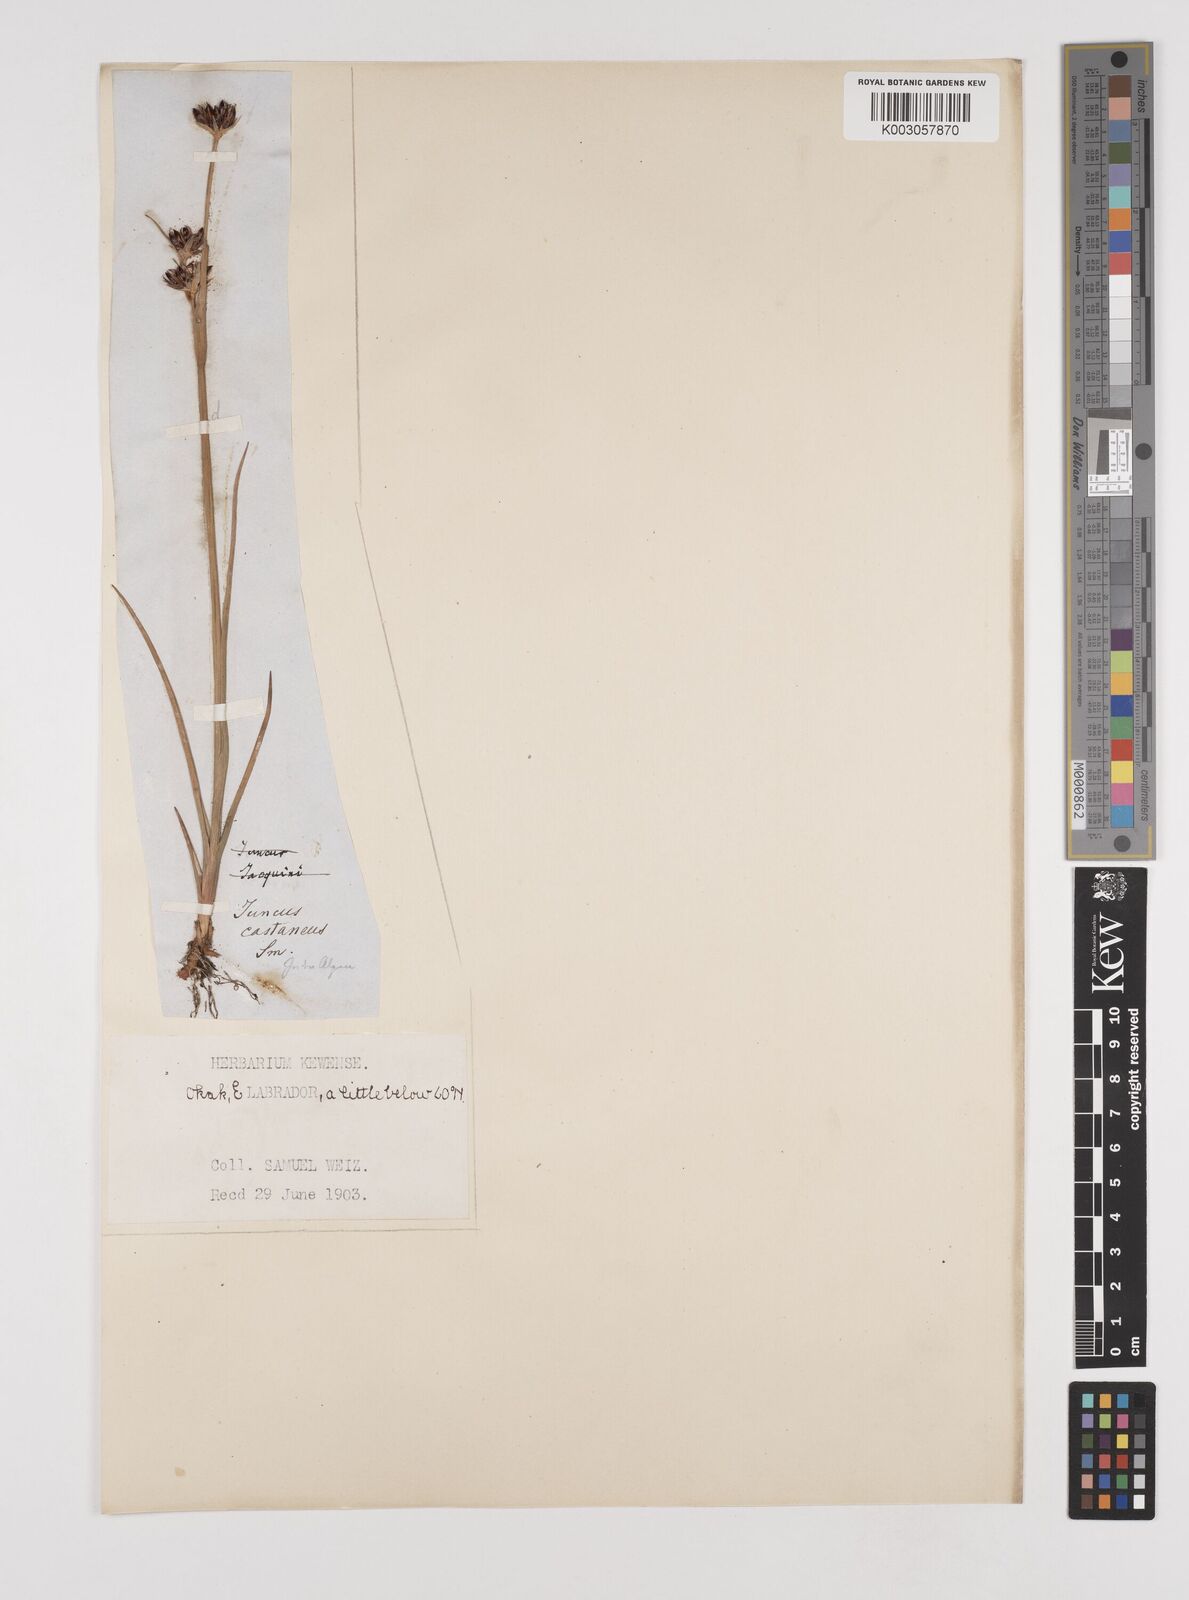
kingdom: Plantae
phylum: Tracheophyta
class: Liliopsida
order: Poales
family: Juncaceae
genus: Juncus
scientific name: Juncus castaneus
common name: Chestnut rush
